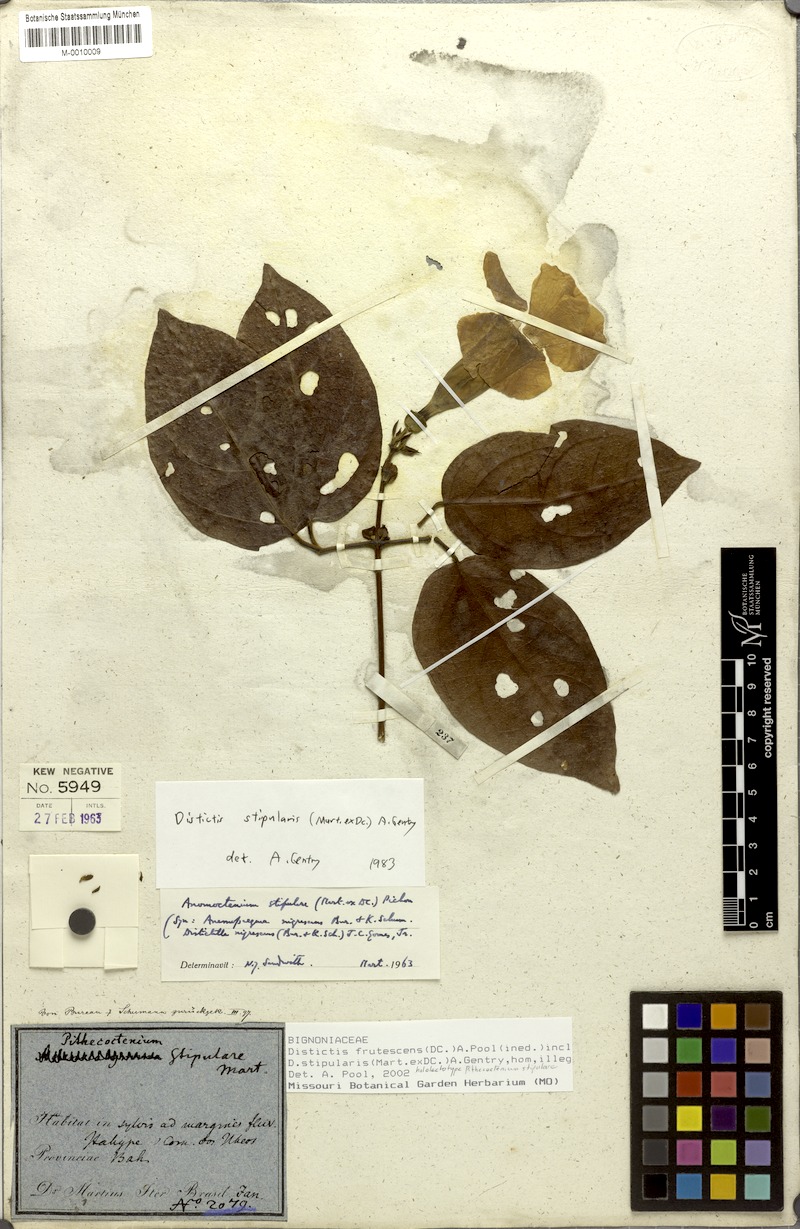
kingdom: Plantae
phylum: Tracheophyta
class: Magnoliopsida
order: Lamiales
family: Bignoniaceae
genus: Amphilophium
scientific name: Amphilophium frutescens
